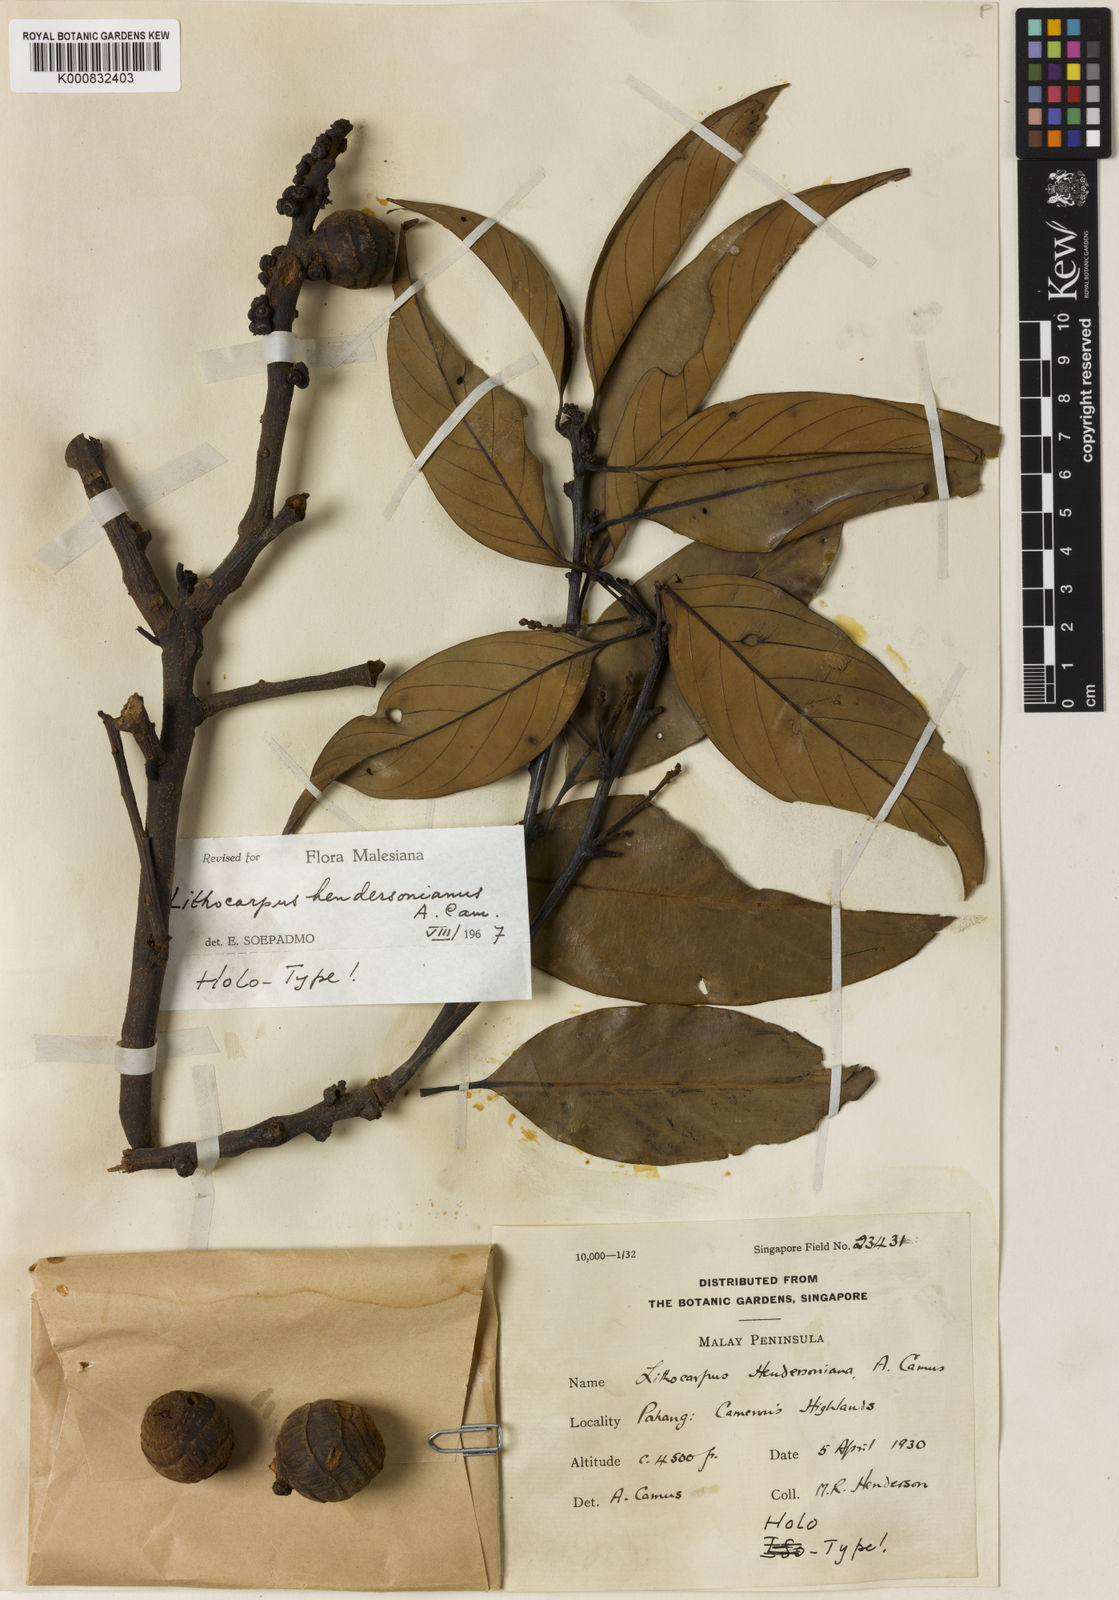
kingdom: Plantae
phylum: Tracheophyta
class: Magnoliopsida
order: Fagales
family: Fagaceae
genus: Lithocarpus
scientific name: Lithocarpus hendersonianus
